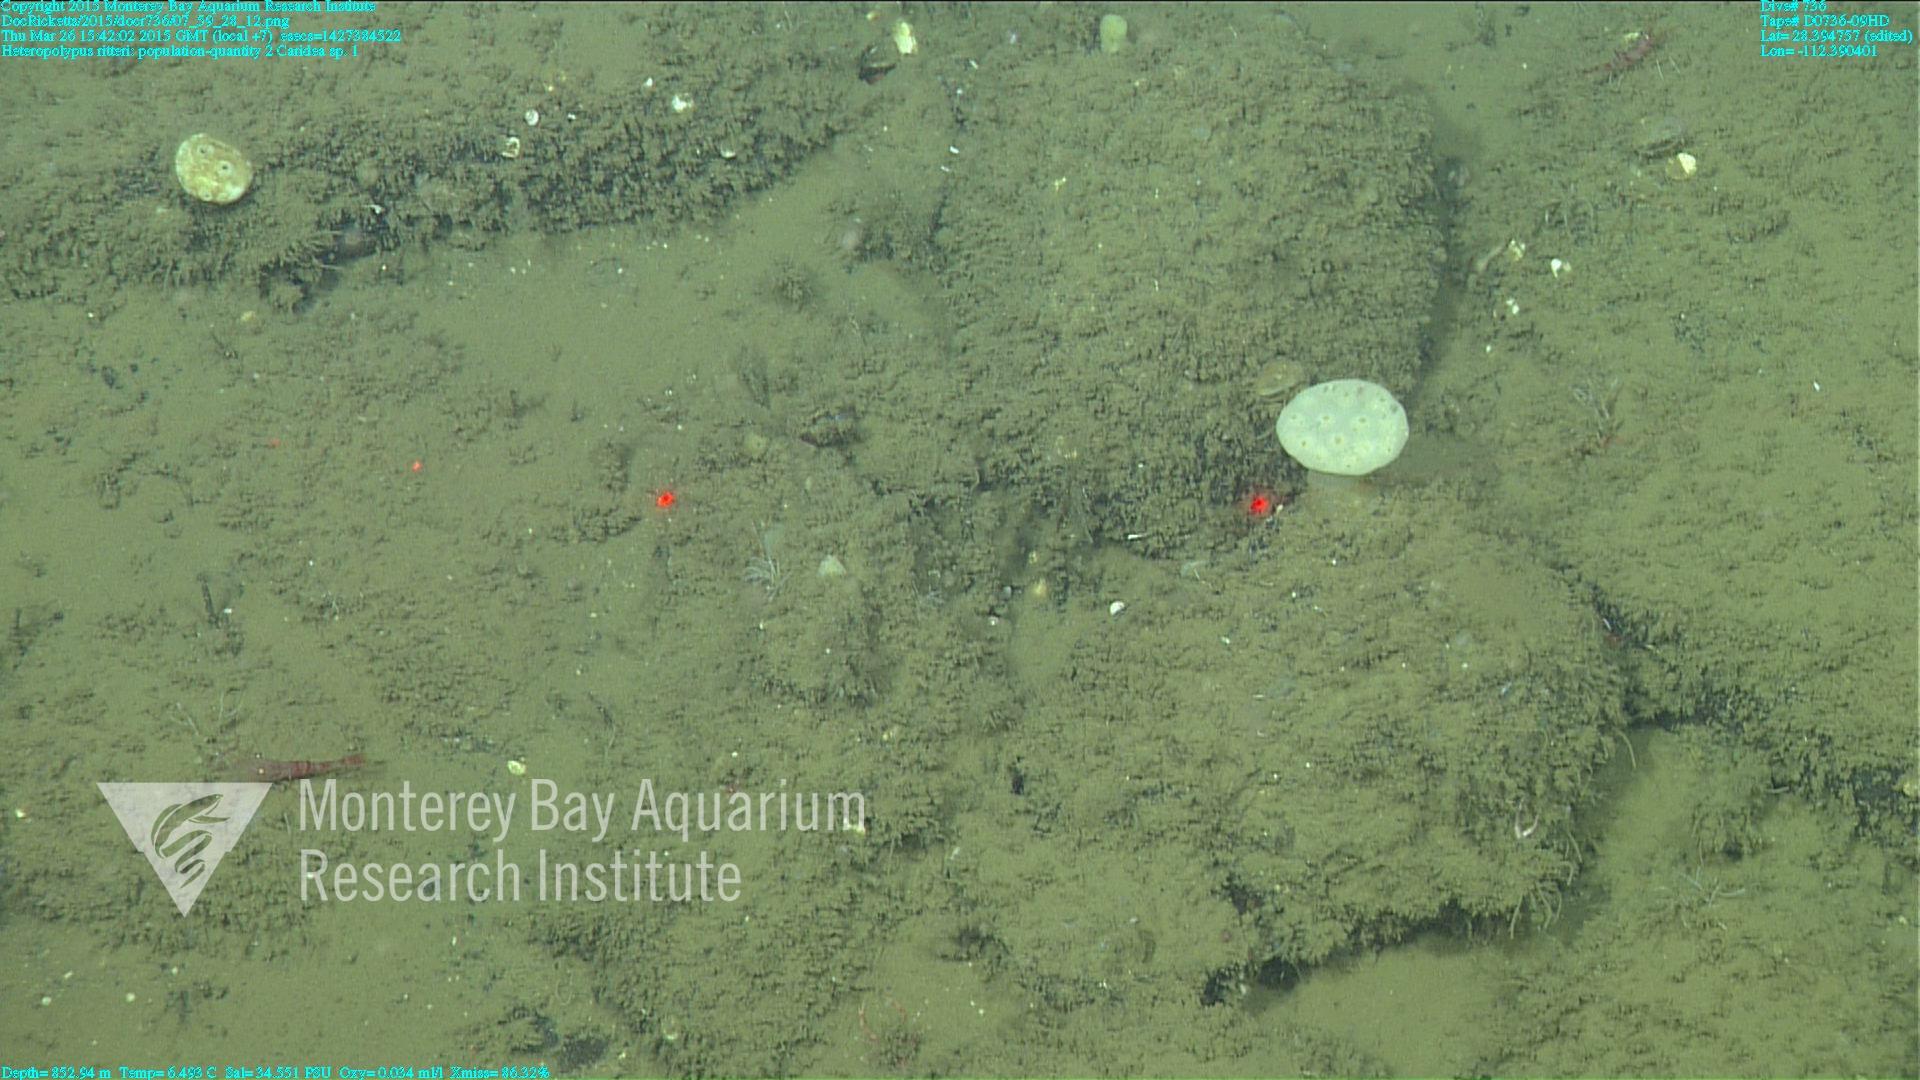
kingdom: Animalia
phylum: Cnidaria
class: Anthozoa
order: Scleralcyonacea
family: Coralliidae
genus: Heteropolypus
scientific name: Heteropolypus ritteri
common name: Ritter's soft coral
